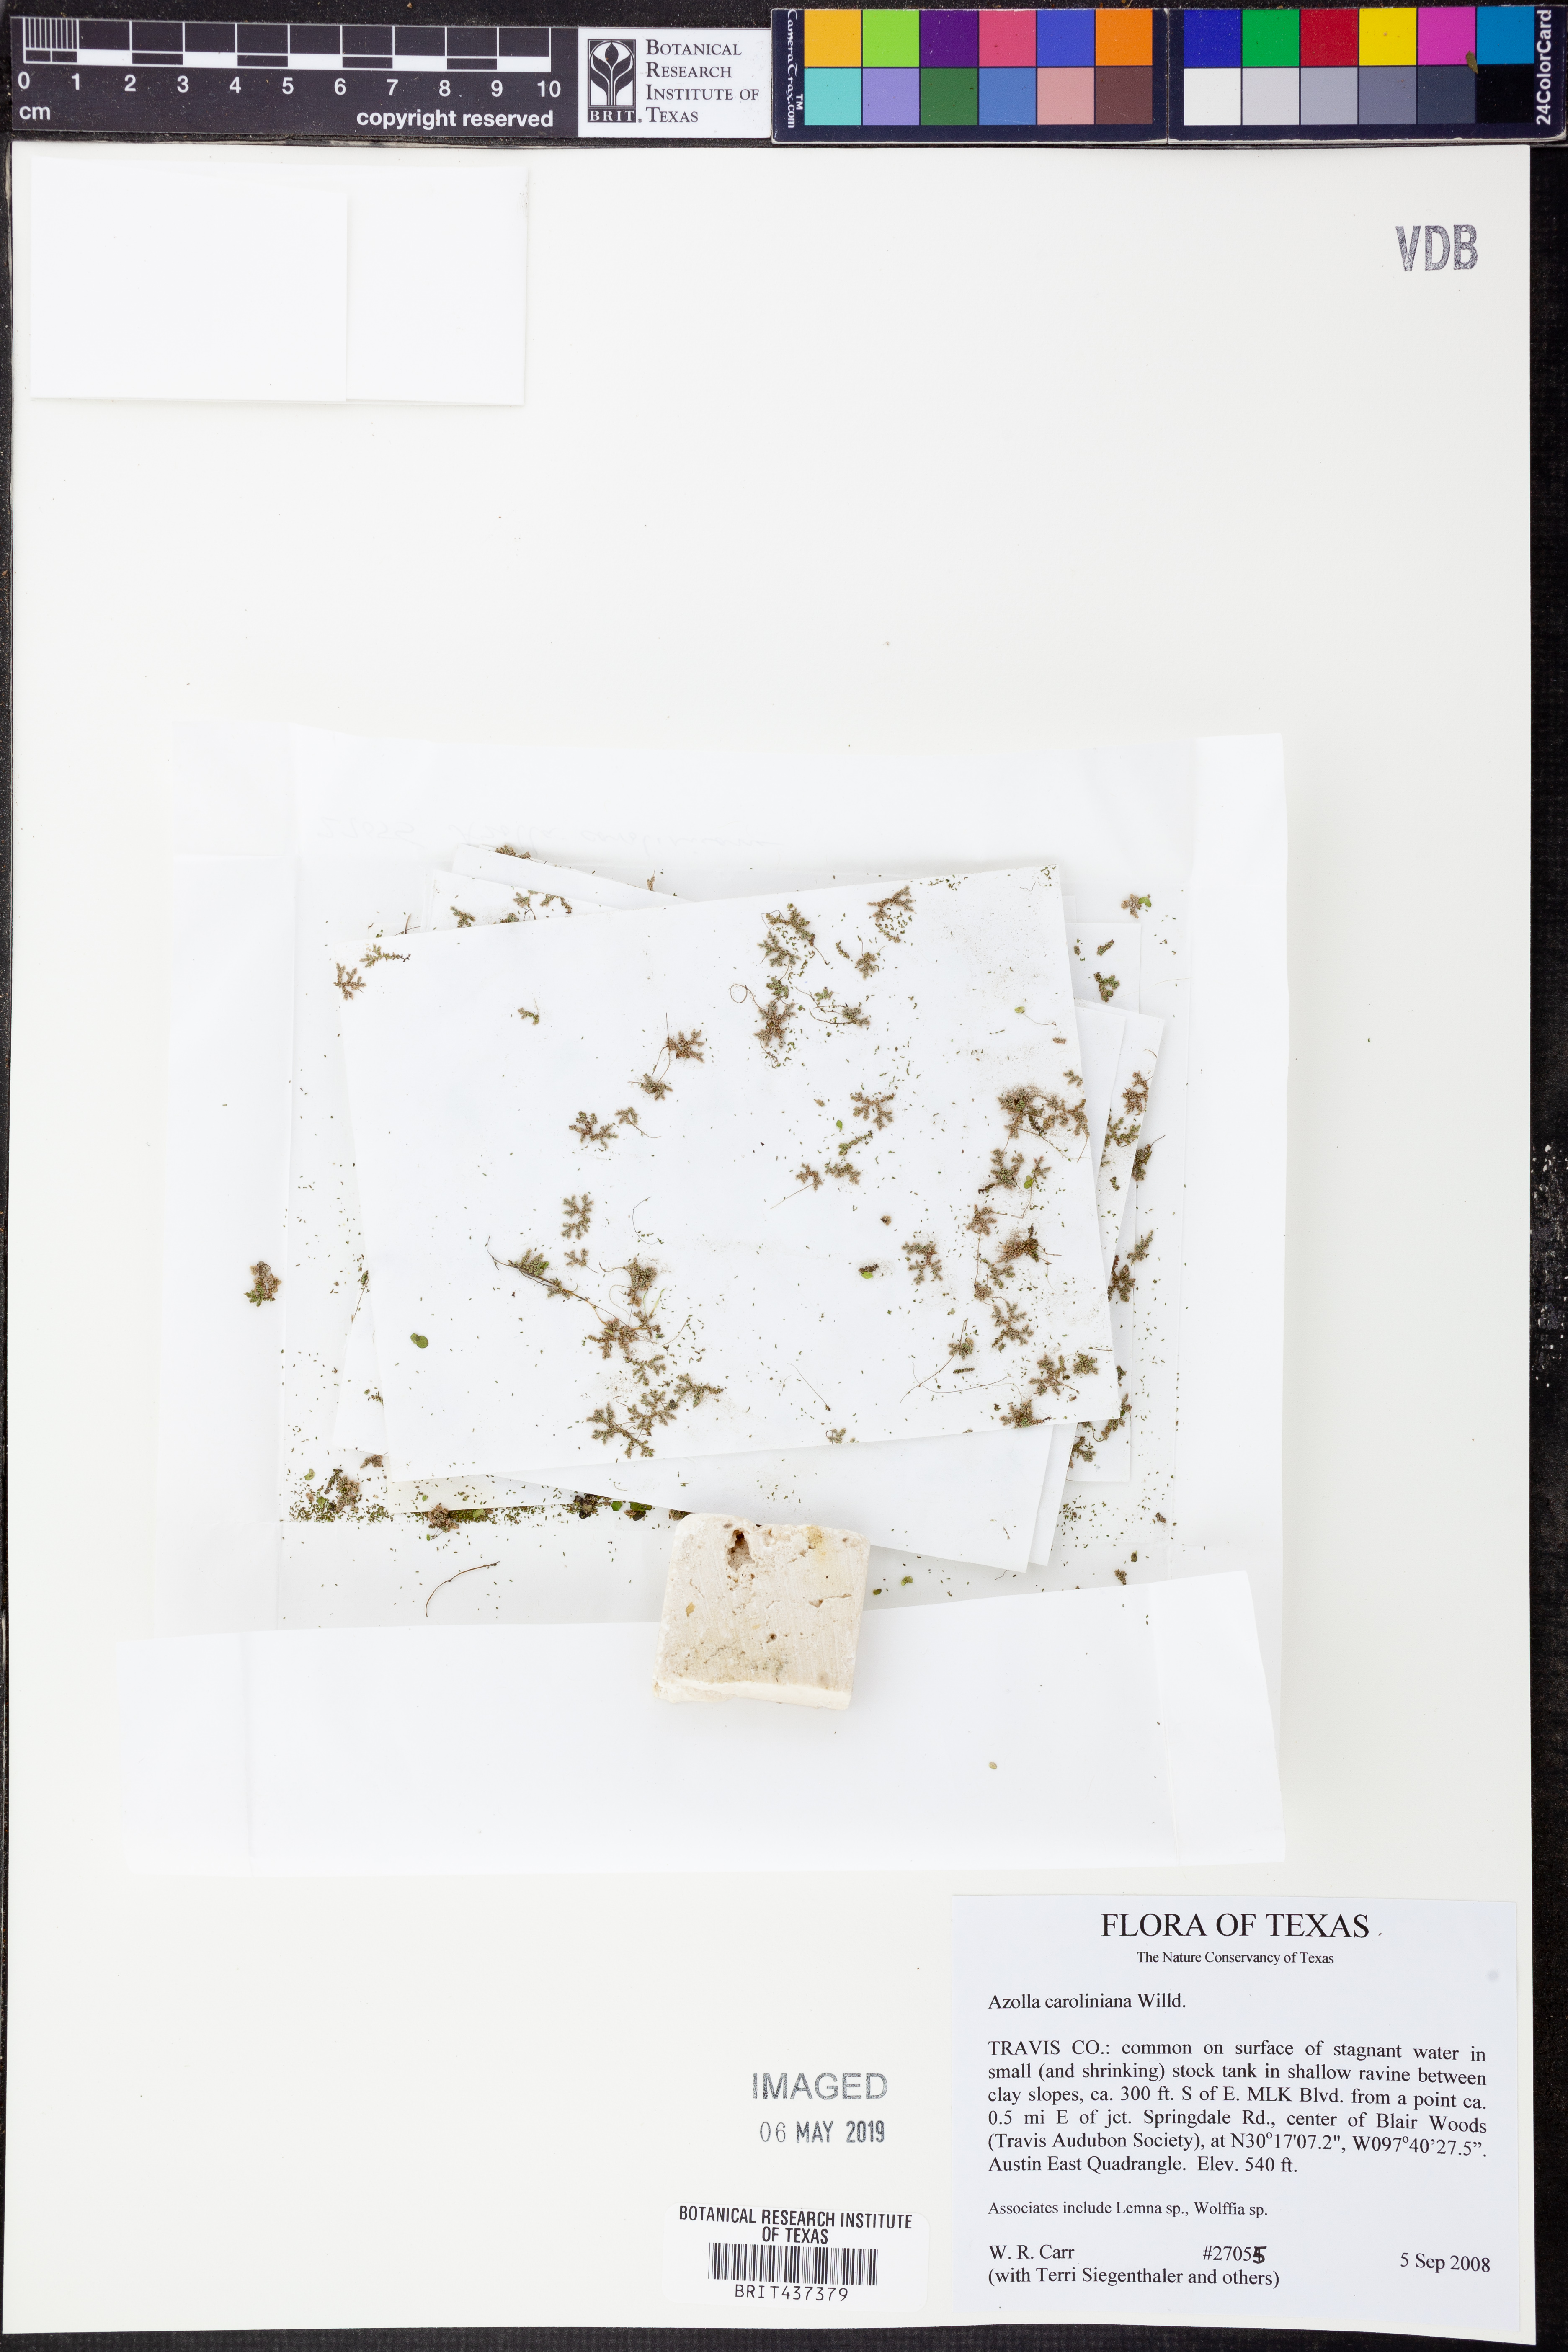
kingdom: Plantae
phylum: Tracheophyta
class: Polypodiopsida
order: Salviniales
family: Salviniaceae
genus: Azolla
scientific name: Azolla caroliniana
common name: Carolina mosquitofern
